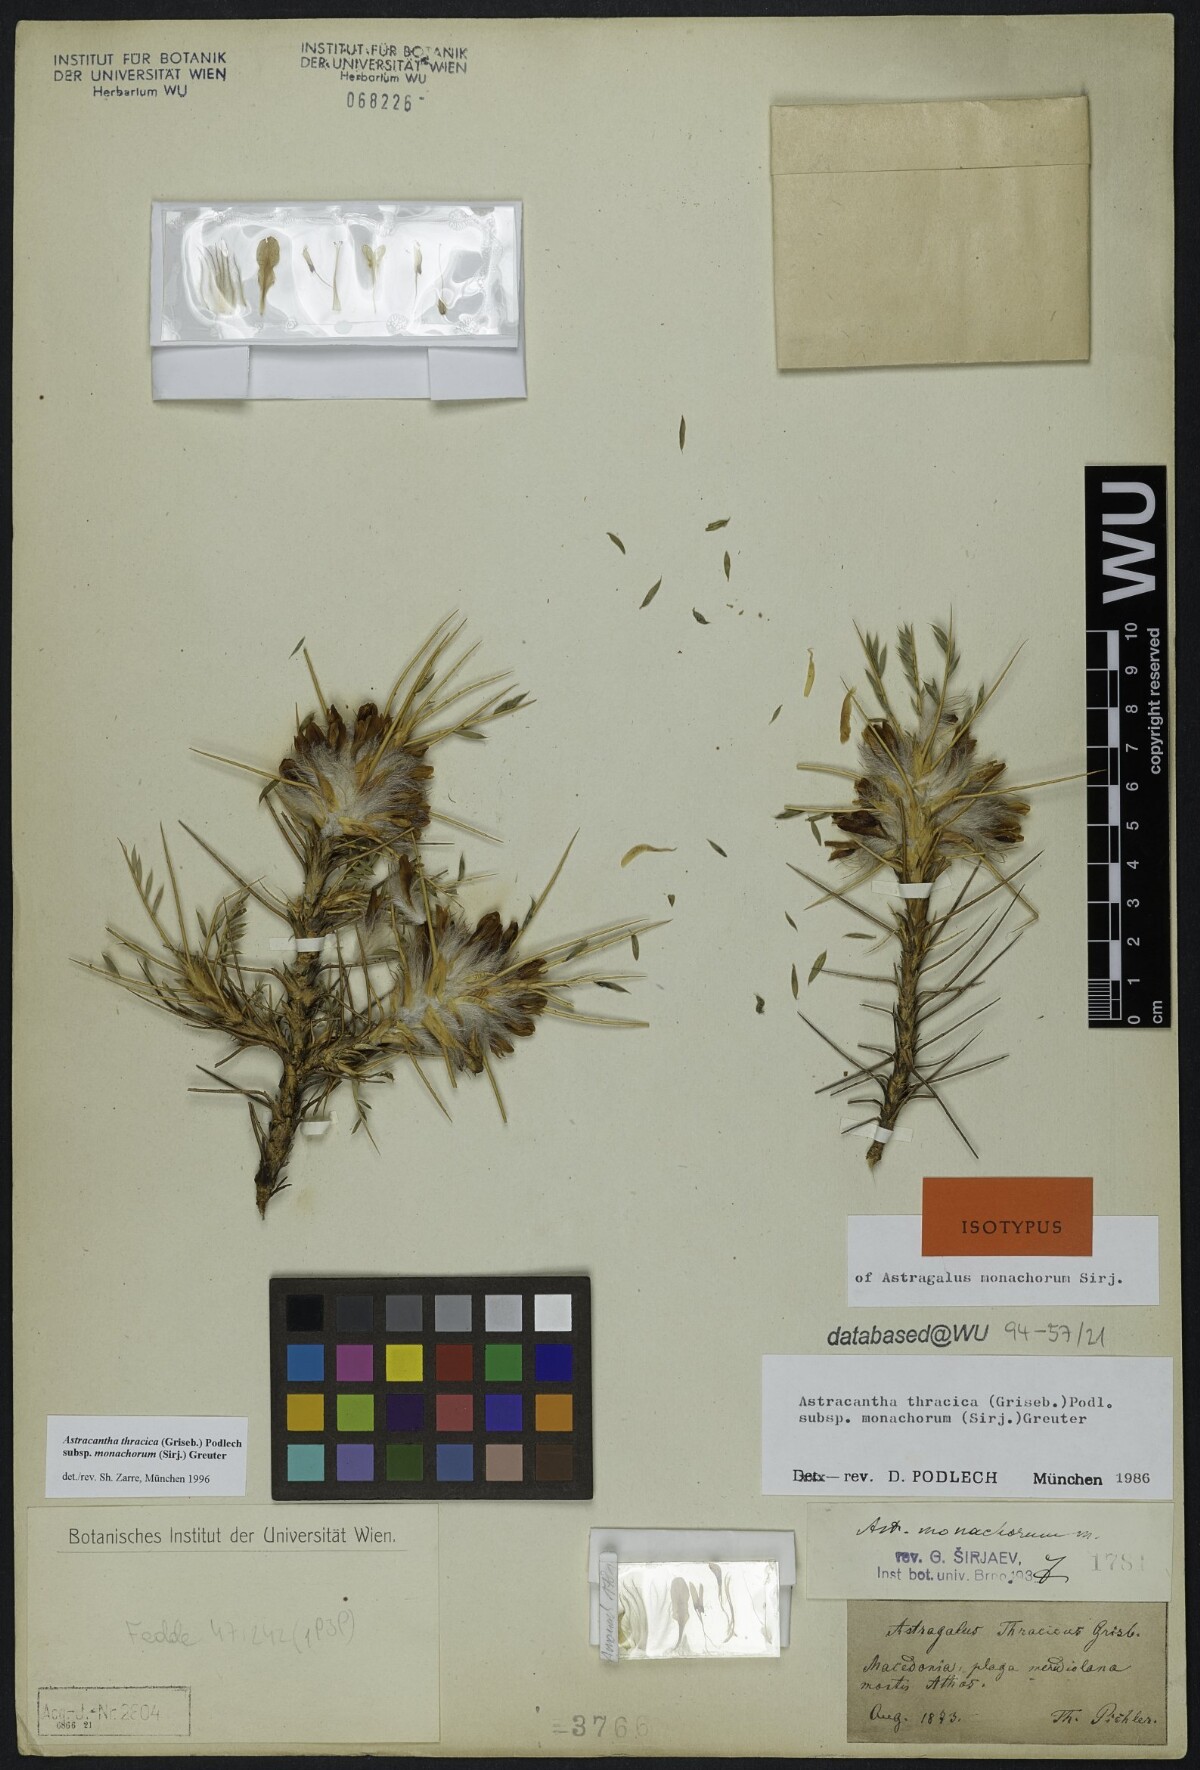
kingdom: Plantae
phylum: Tracheophyta
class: Magnoliopsida
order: Fabales
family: Fabaceae
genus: Astragalus
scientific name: Astragalus thracicus
